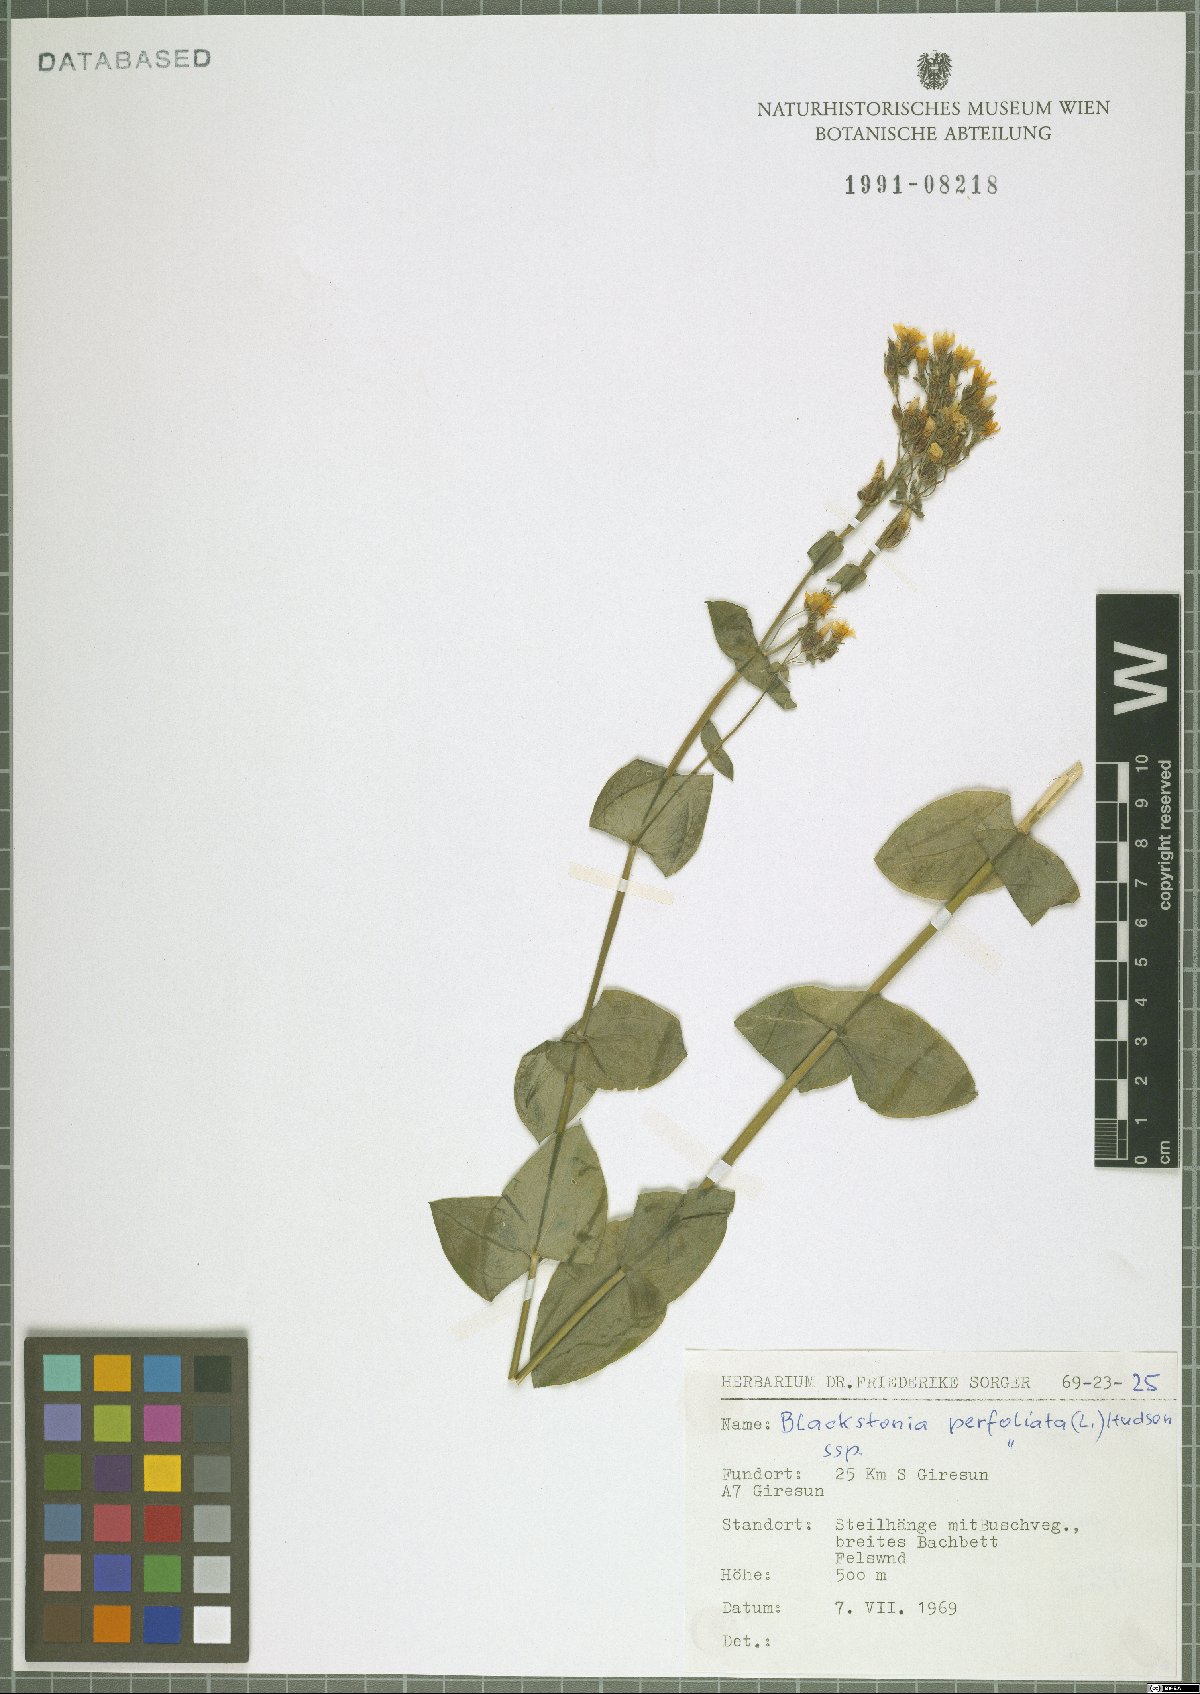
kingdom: Plantae
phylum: Tracheophyta
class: Magnoliopsida
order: Gentianales
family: Gentianaceae
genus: Blackstonia
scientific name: Blackstonia perfoliata
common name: Yellow-wort
